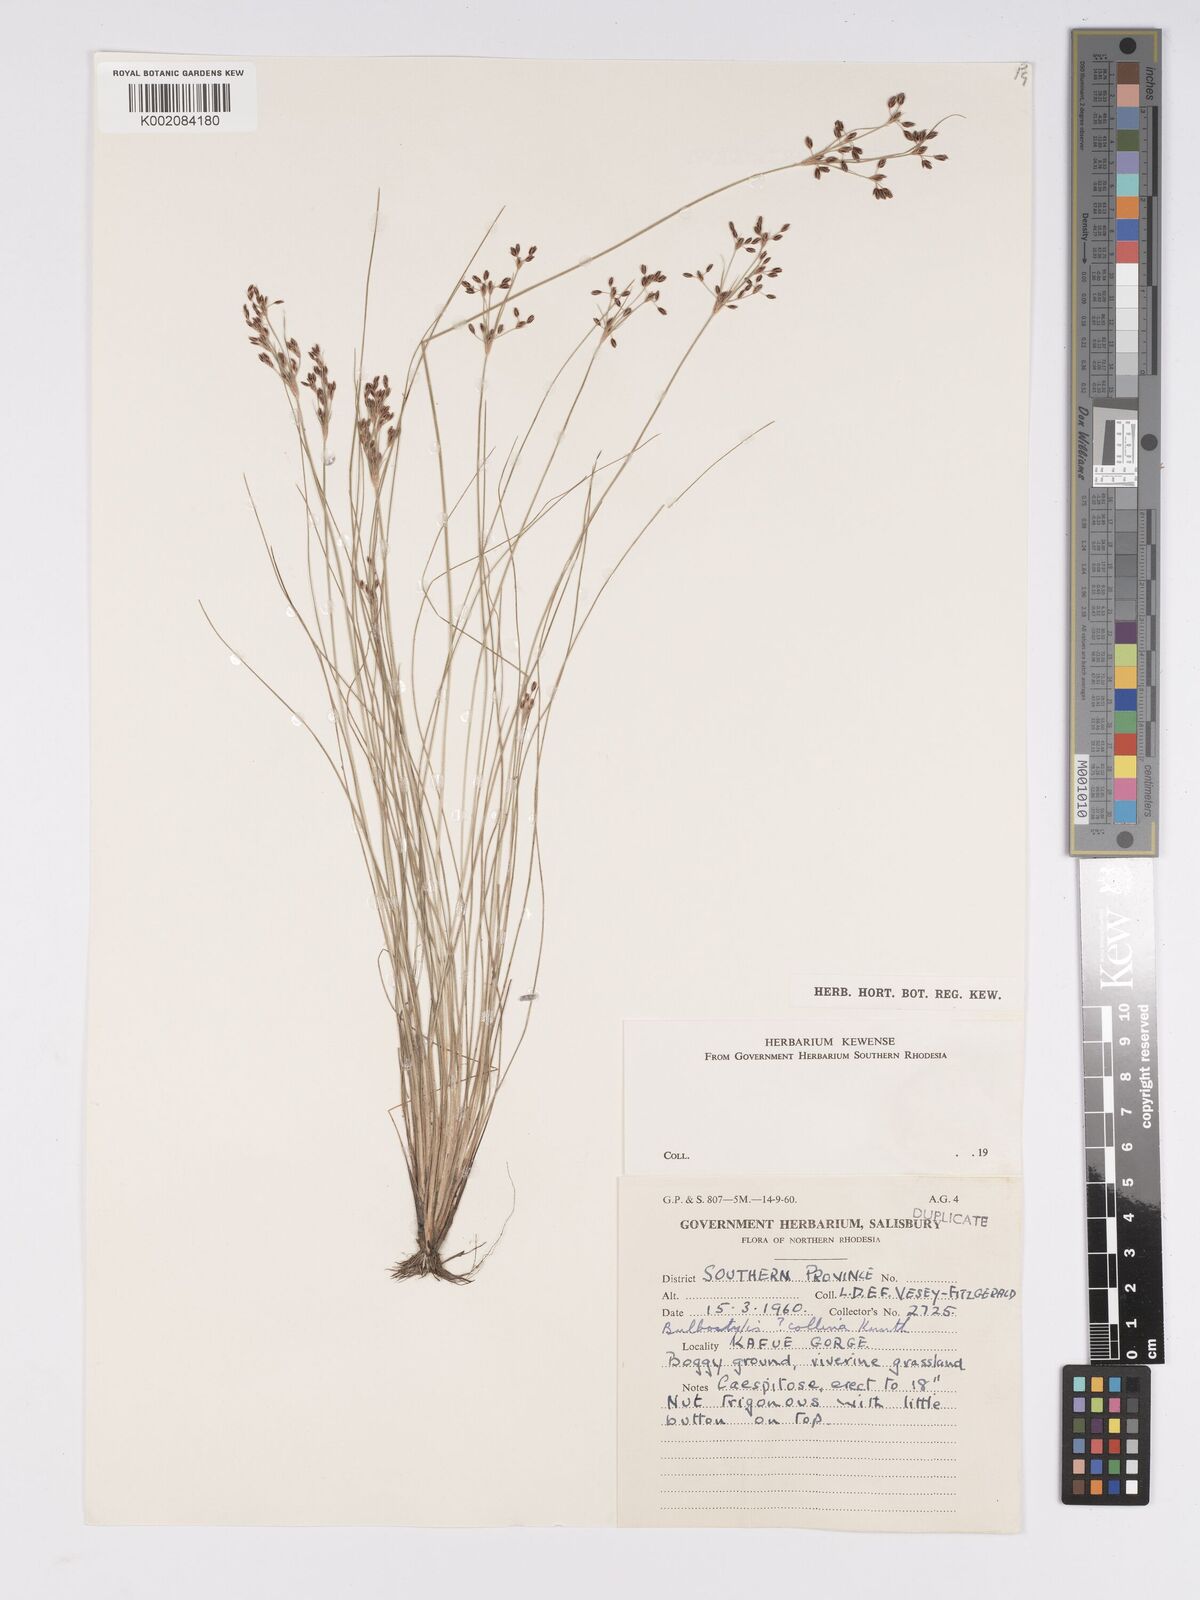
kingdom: Plantae
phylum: Tracheophyta
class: Liliopsida
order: Poales
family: Cyperaceae
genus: Bulbostylis
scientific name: Bulbostylis
